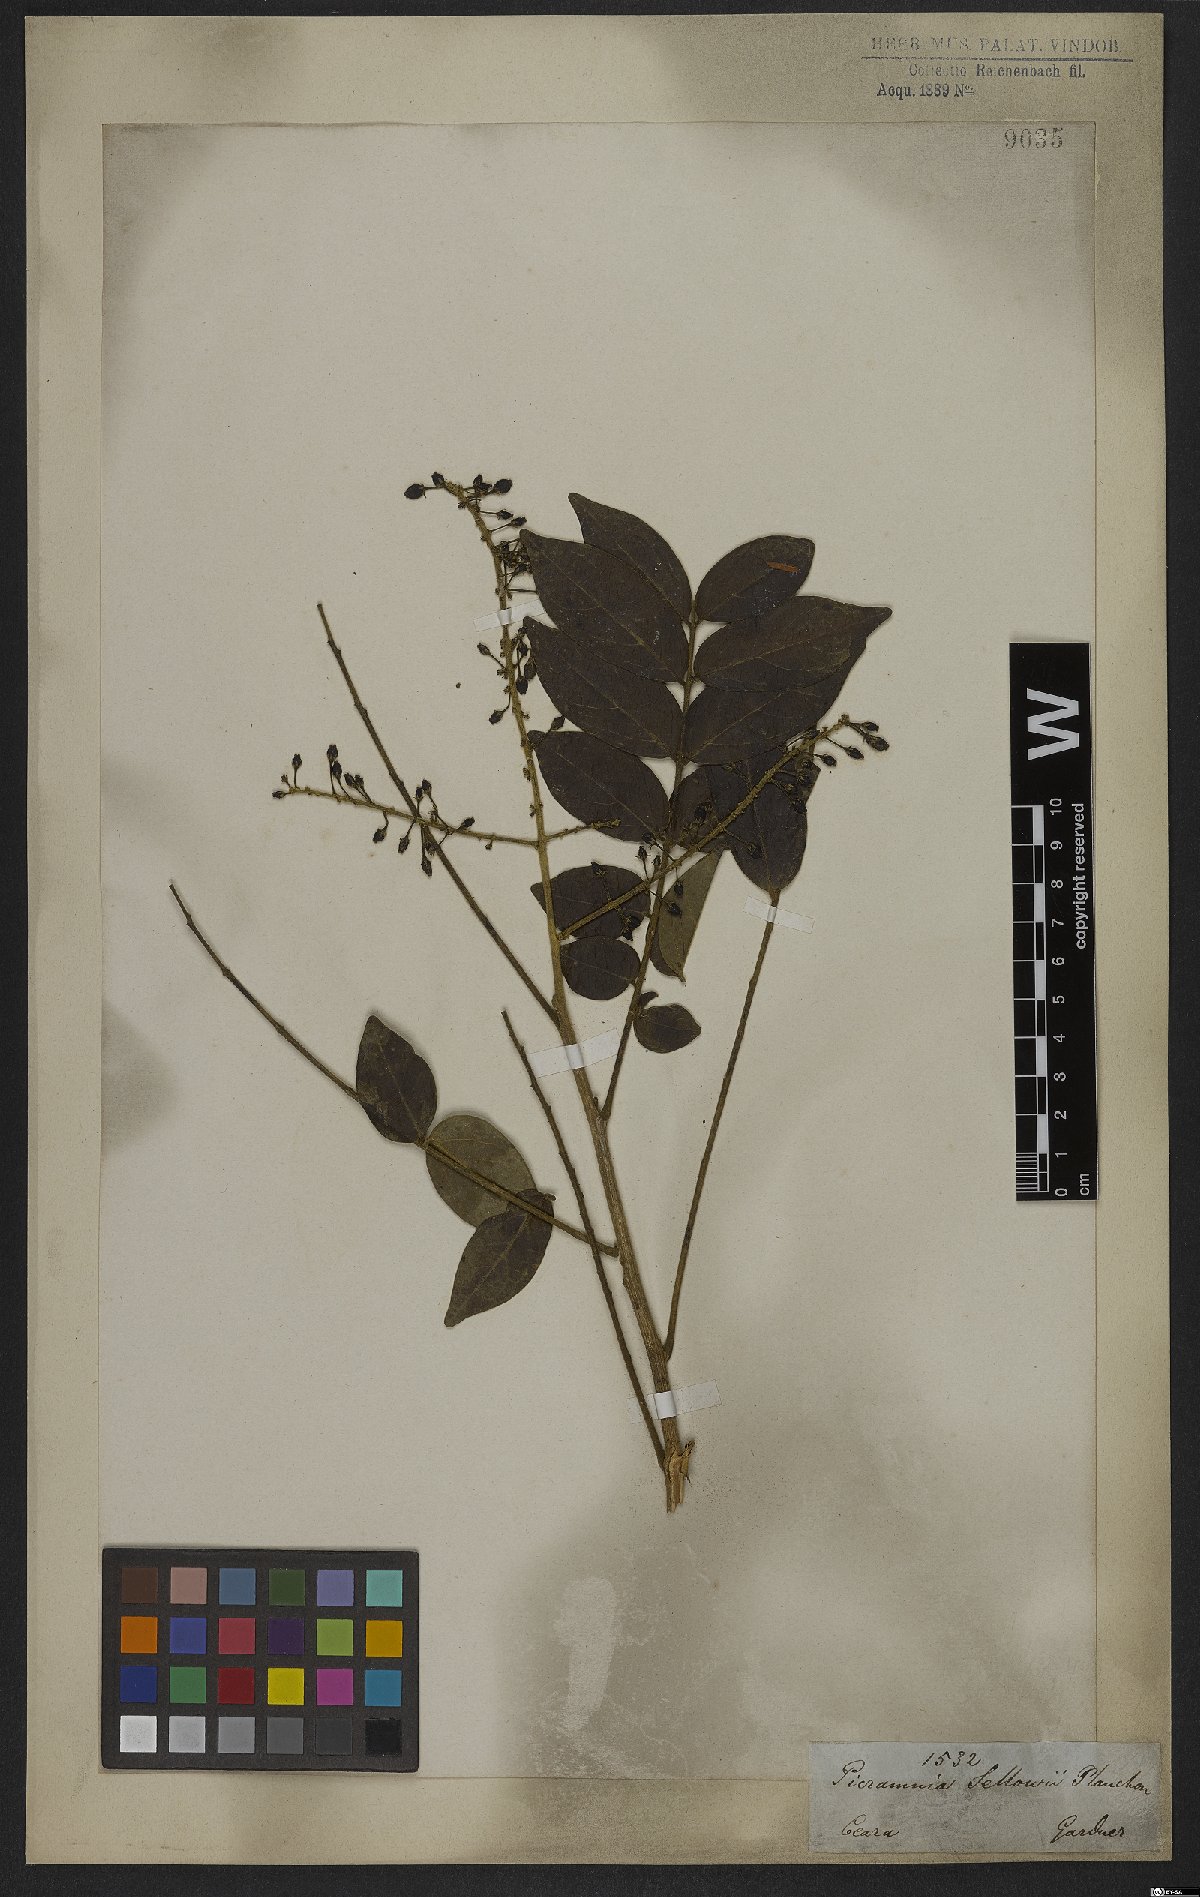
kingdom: Plantae
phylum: Tracheophyta
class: Magnoliopsida
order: Picramniales
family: Picramniaceae
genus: Picramnia
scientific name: Picramnia sellowii
